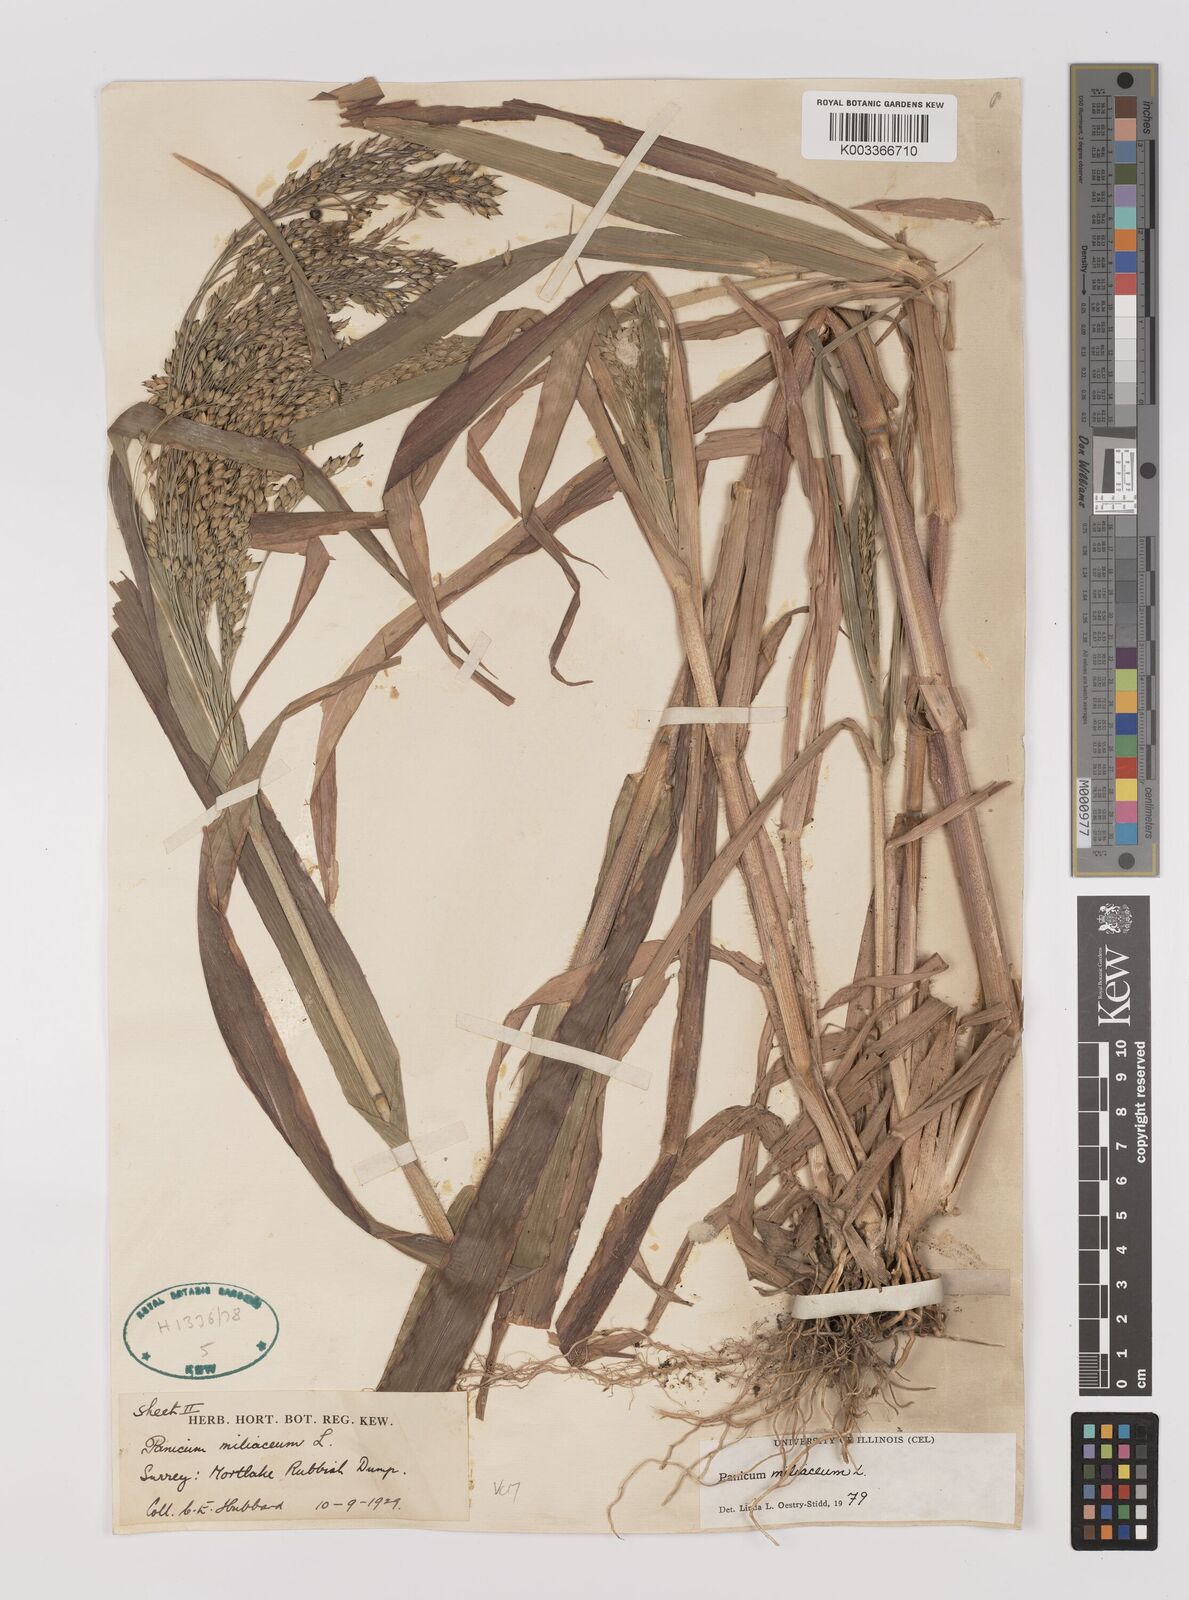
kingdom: Plantae
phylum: Tracheophyta
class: Liliopsida
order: Poales
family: Poaceae
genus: Panicum
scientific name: Panicum miliaceum
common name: Common millet
